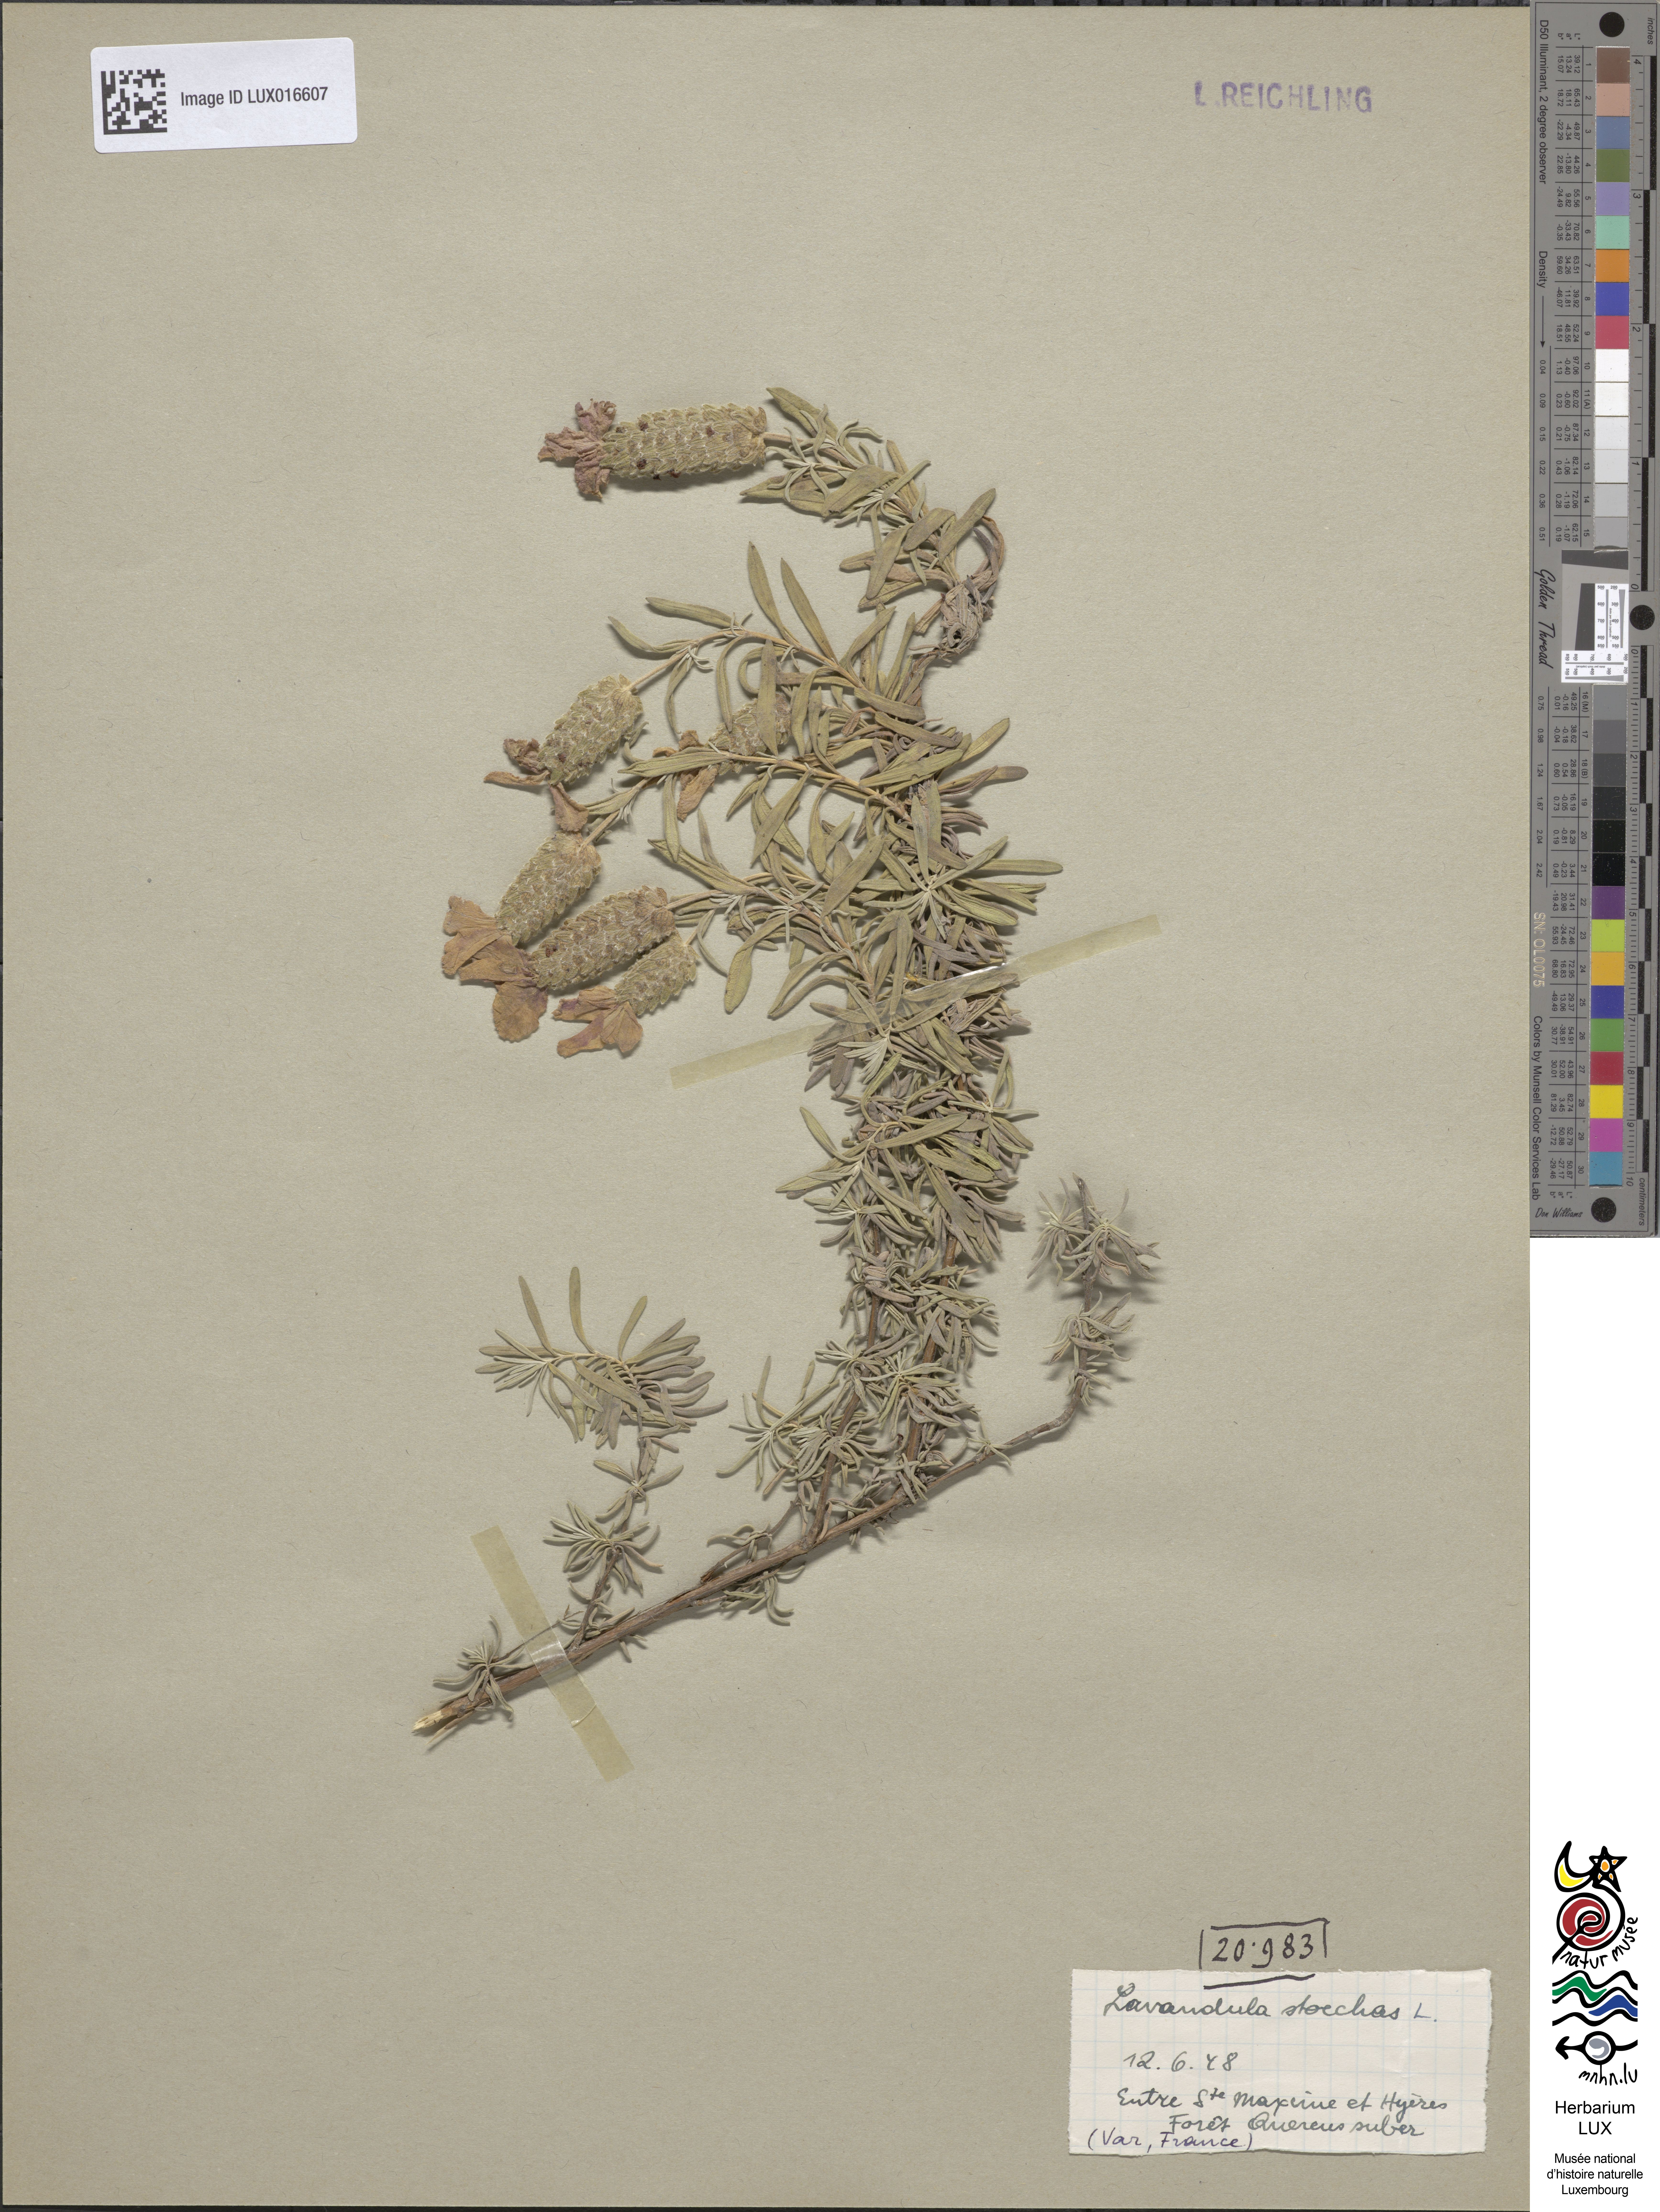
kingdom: Plantae
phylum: Tracheophyta
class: Magnoliopsida
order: Lamiales
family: Lamiaceae
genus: Lavandula
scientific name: Lavandula stoechas
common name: French lavender
